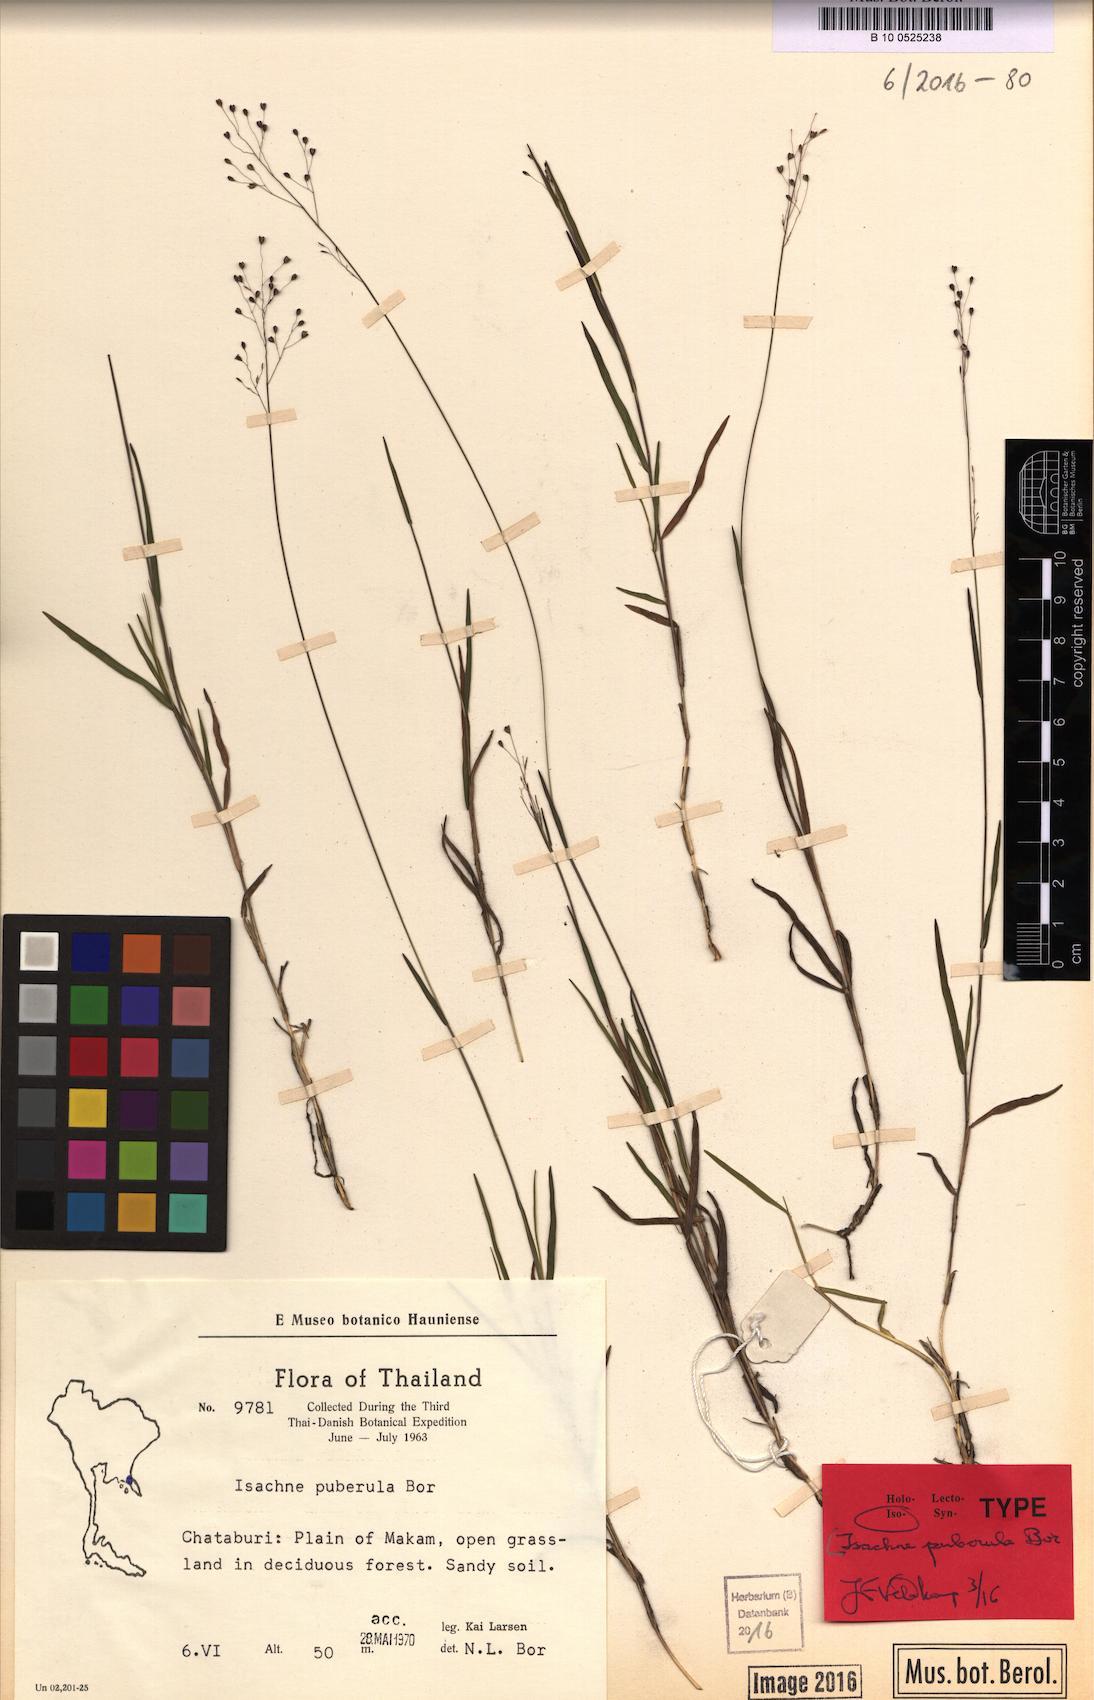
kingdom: Plantae
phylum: Tracheophyta
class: Liliopsida
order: Poales
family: Poaceae
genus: Isachne
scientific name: Isachne puberula
